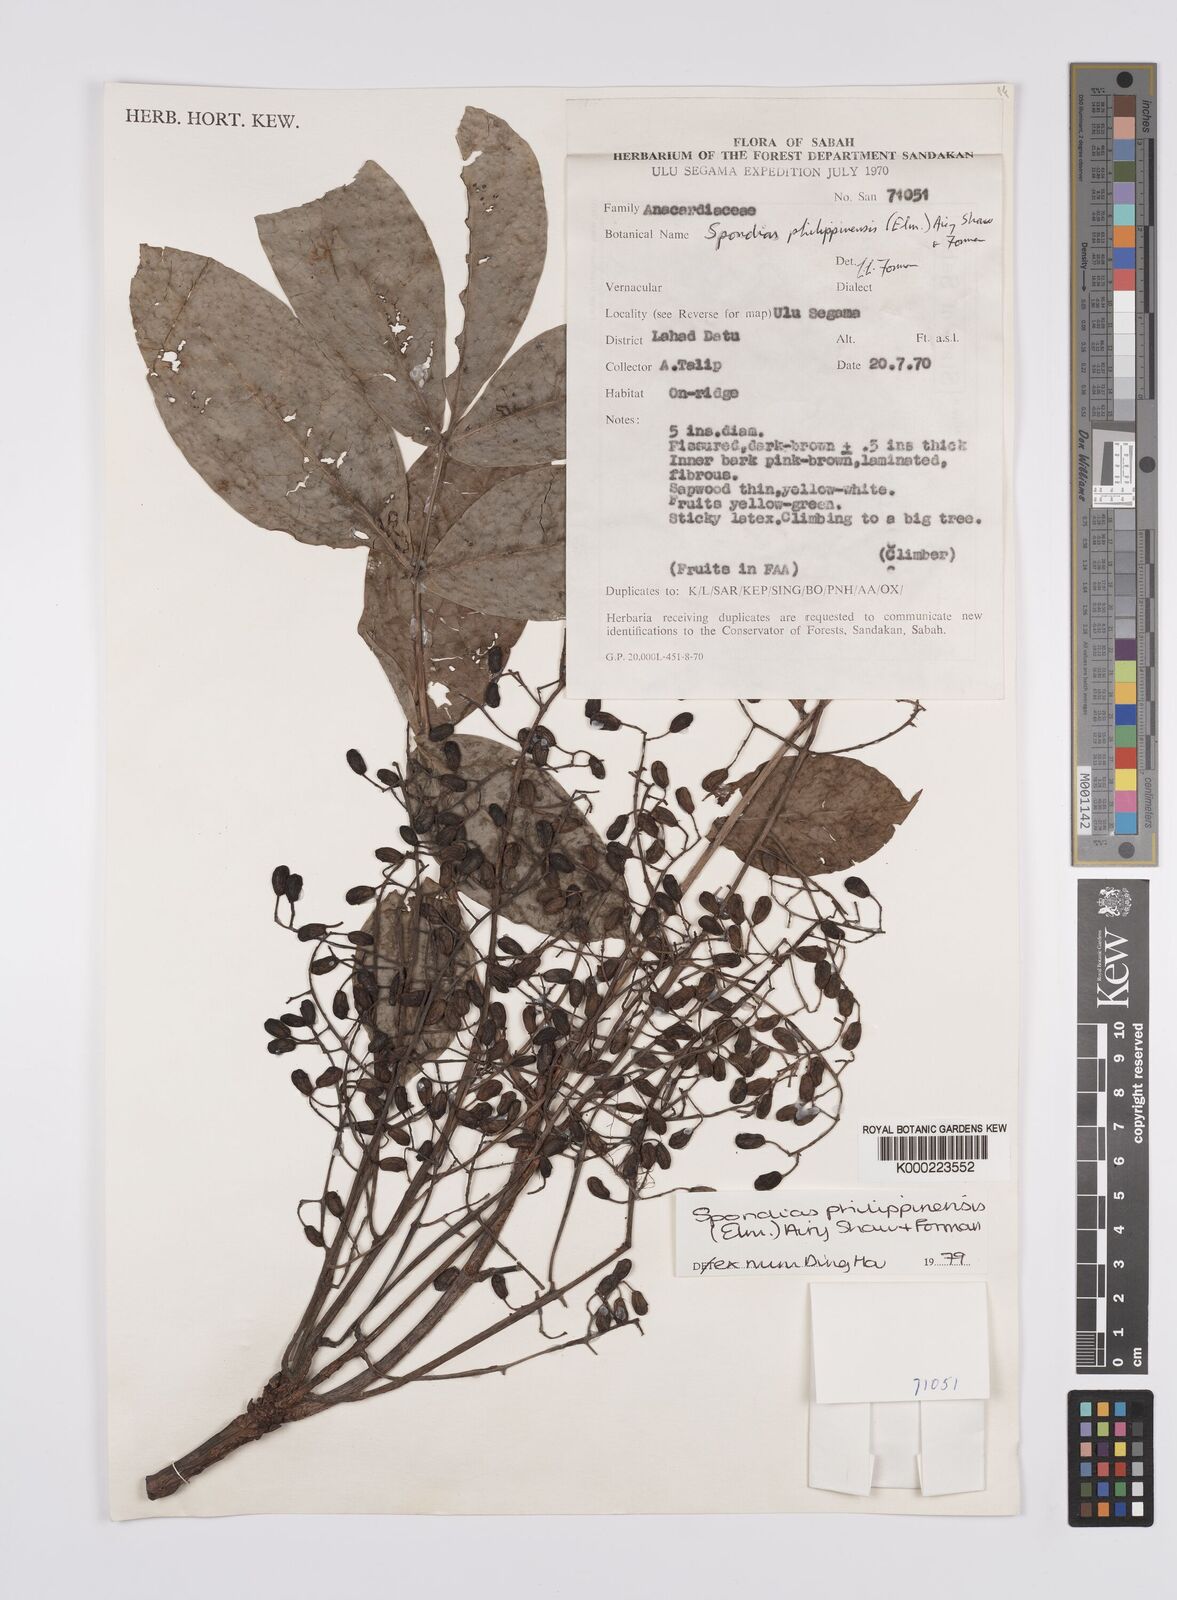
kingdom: Plantae
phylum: Tracheophyta
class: Magnoliopsida
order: Sapindales
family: Anacardiaceae
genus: Spondias
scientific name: Spondias philippinensis
